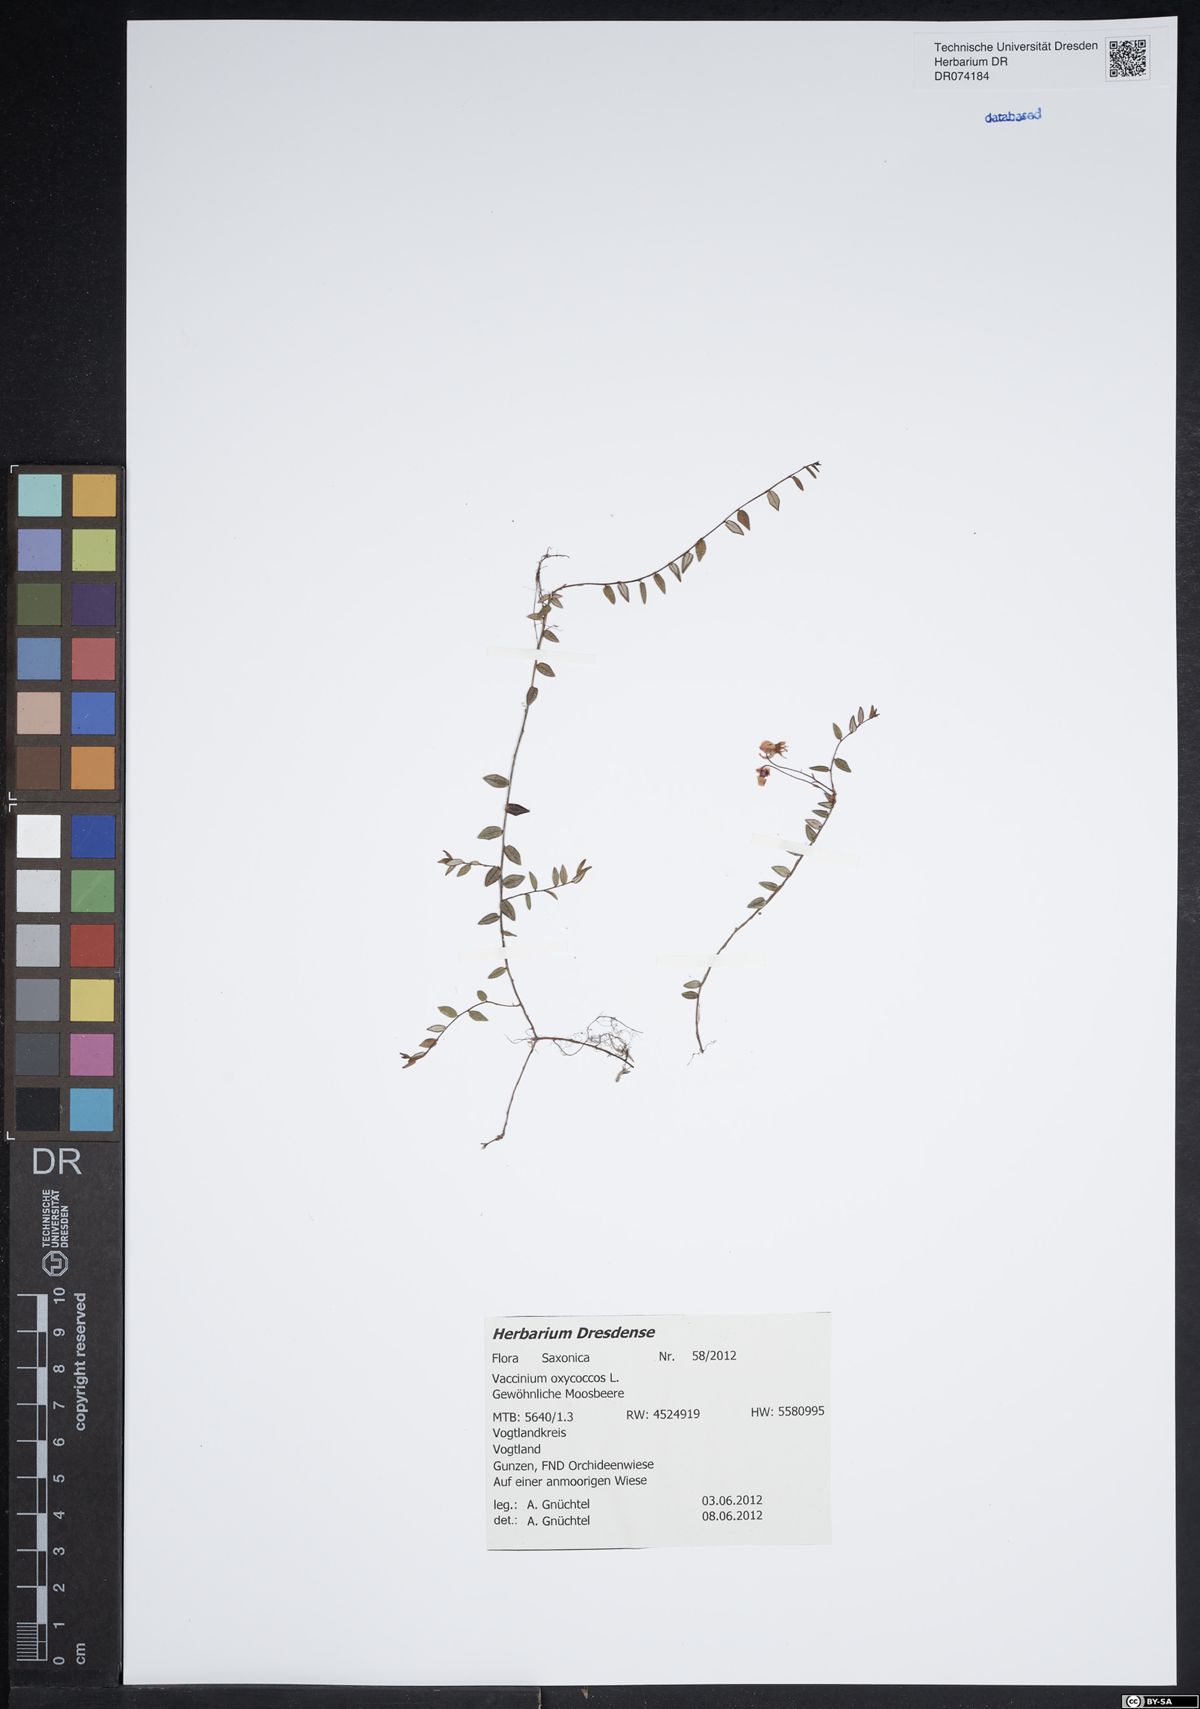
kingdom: Plantae
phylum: Tracheophyta
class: Magnoliopsida
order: Ericales
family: Ericaceae
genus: Vaccinium
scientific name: Vaccinium oxycoccos
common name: Cranberry
